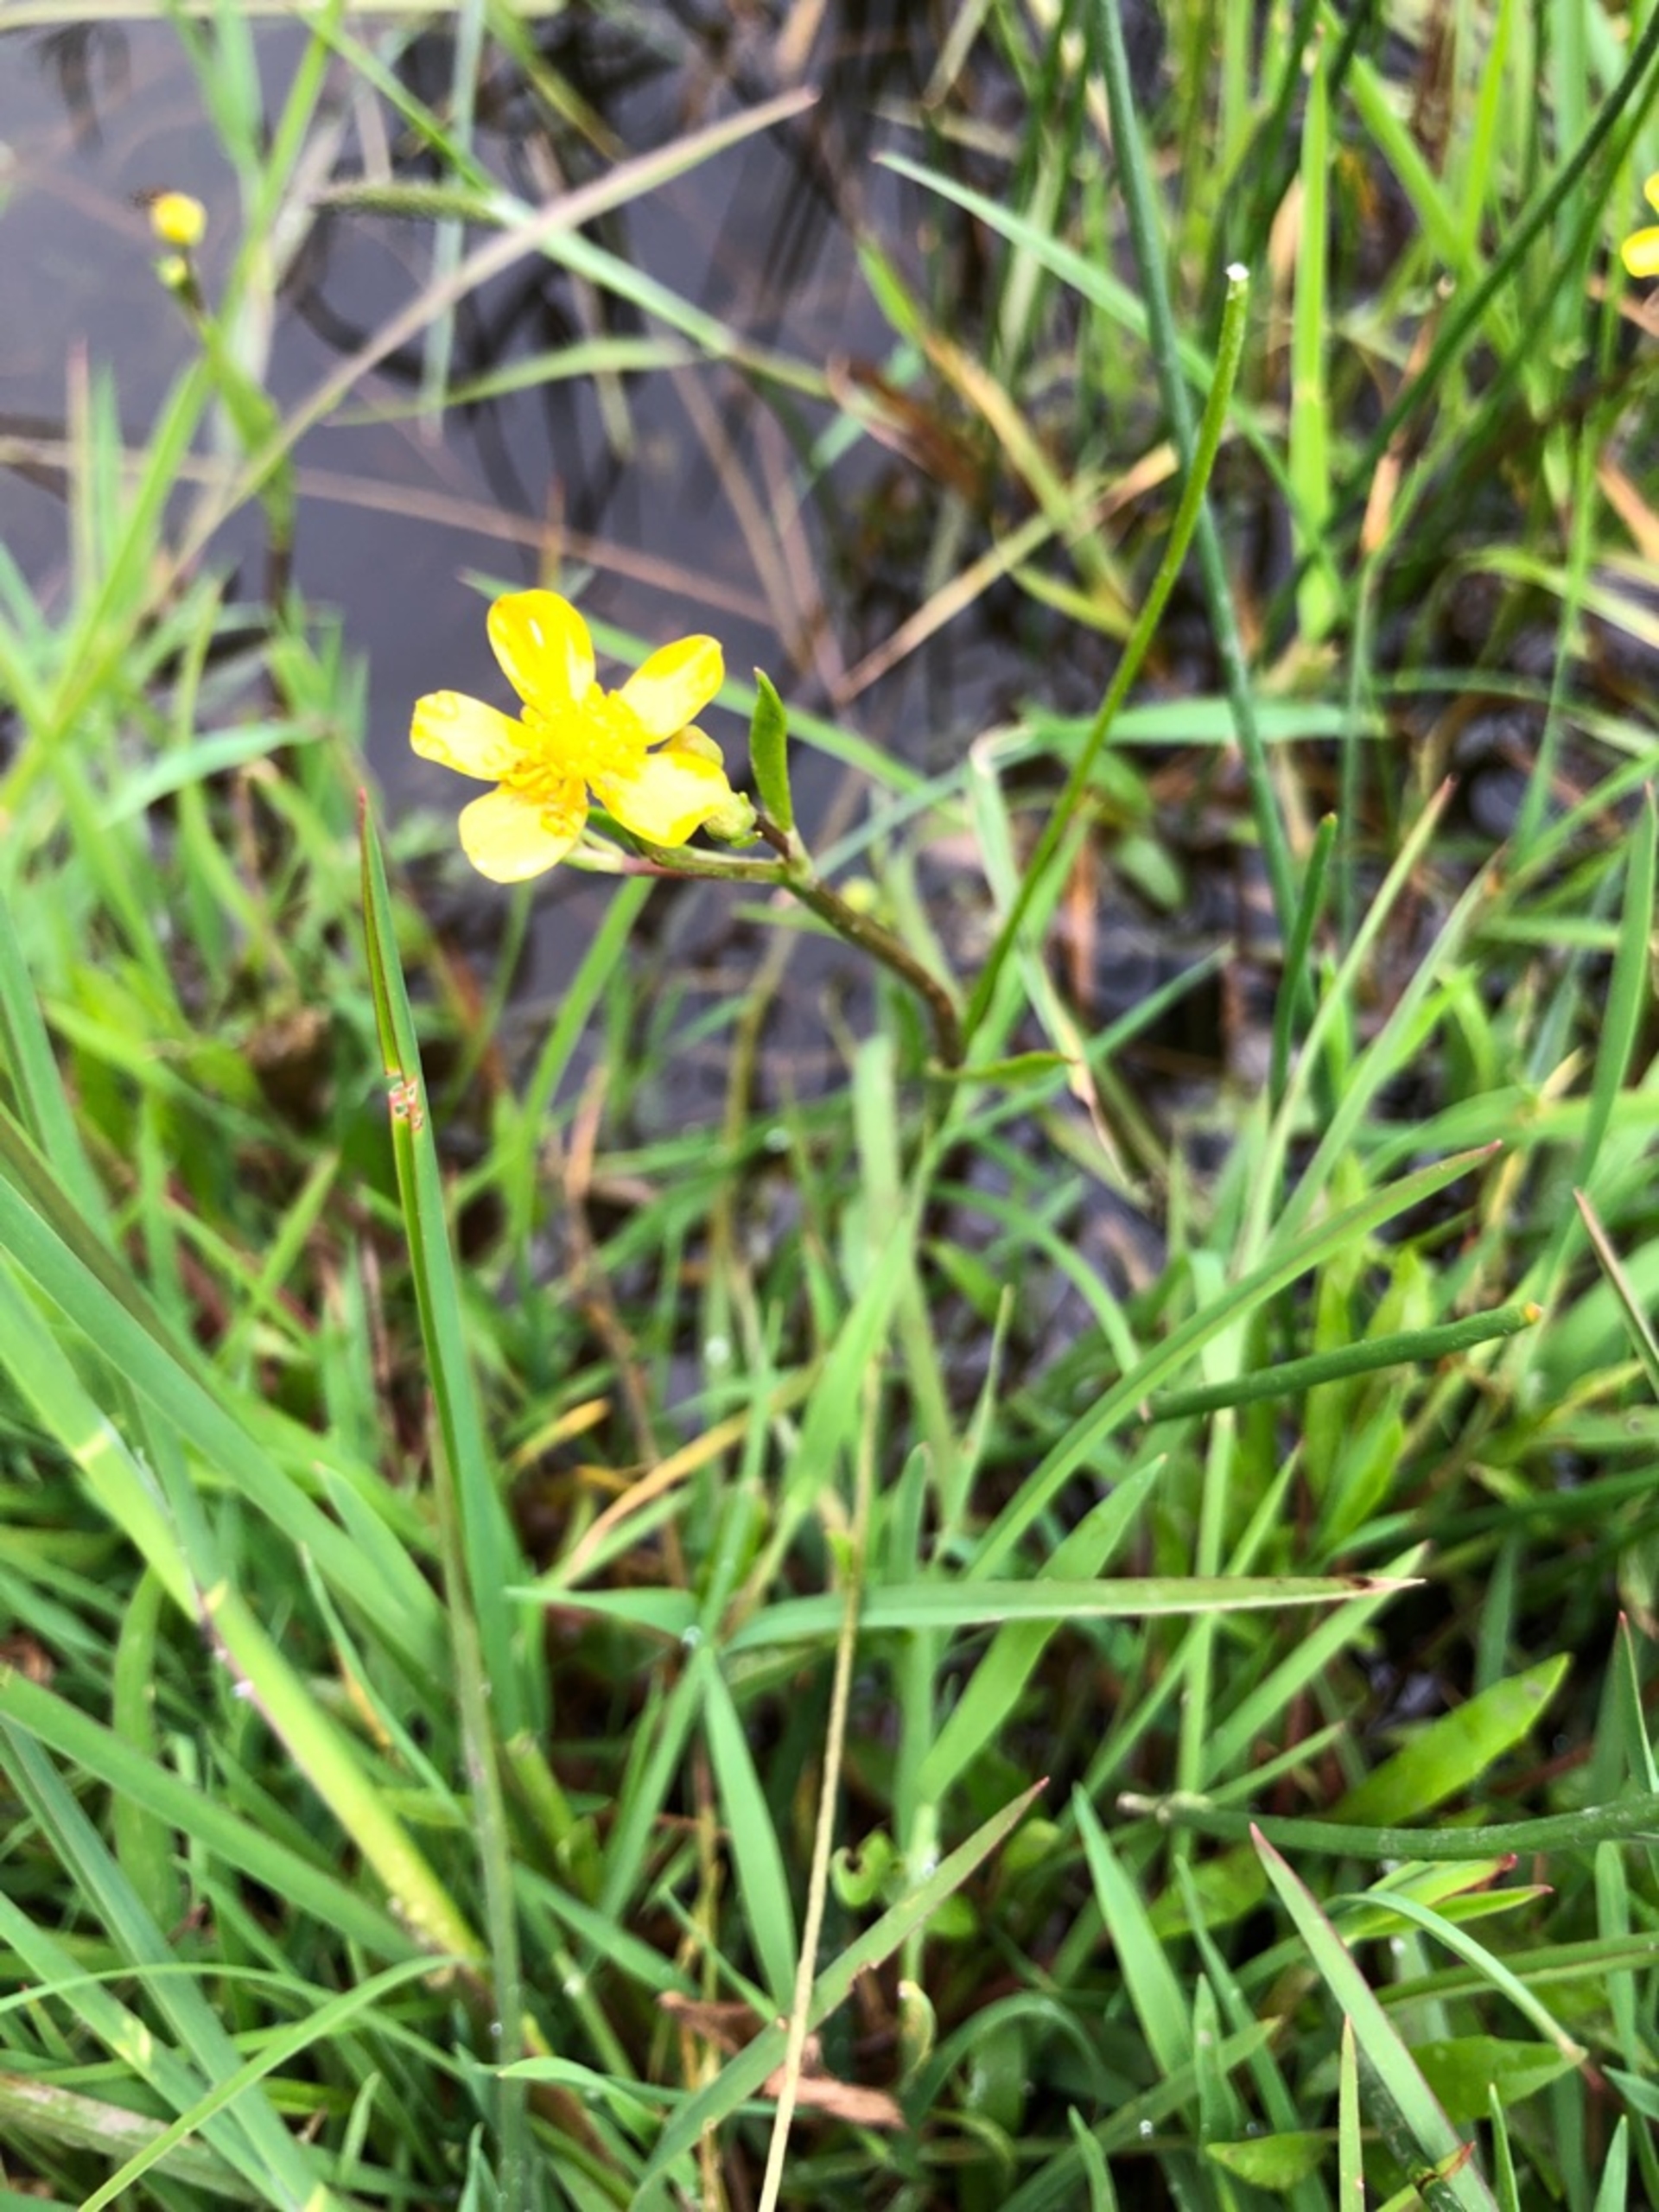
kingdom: Plantae
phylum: Tracheophyta
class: Magnoliopsida
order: Ranunculales
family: Ranunculaceae
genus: Ranunculus
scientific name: Ranunculus flammula
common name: Kær-ranunkel
